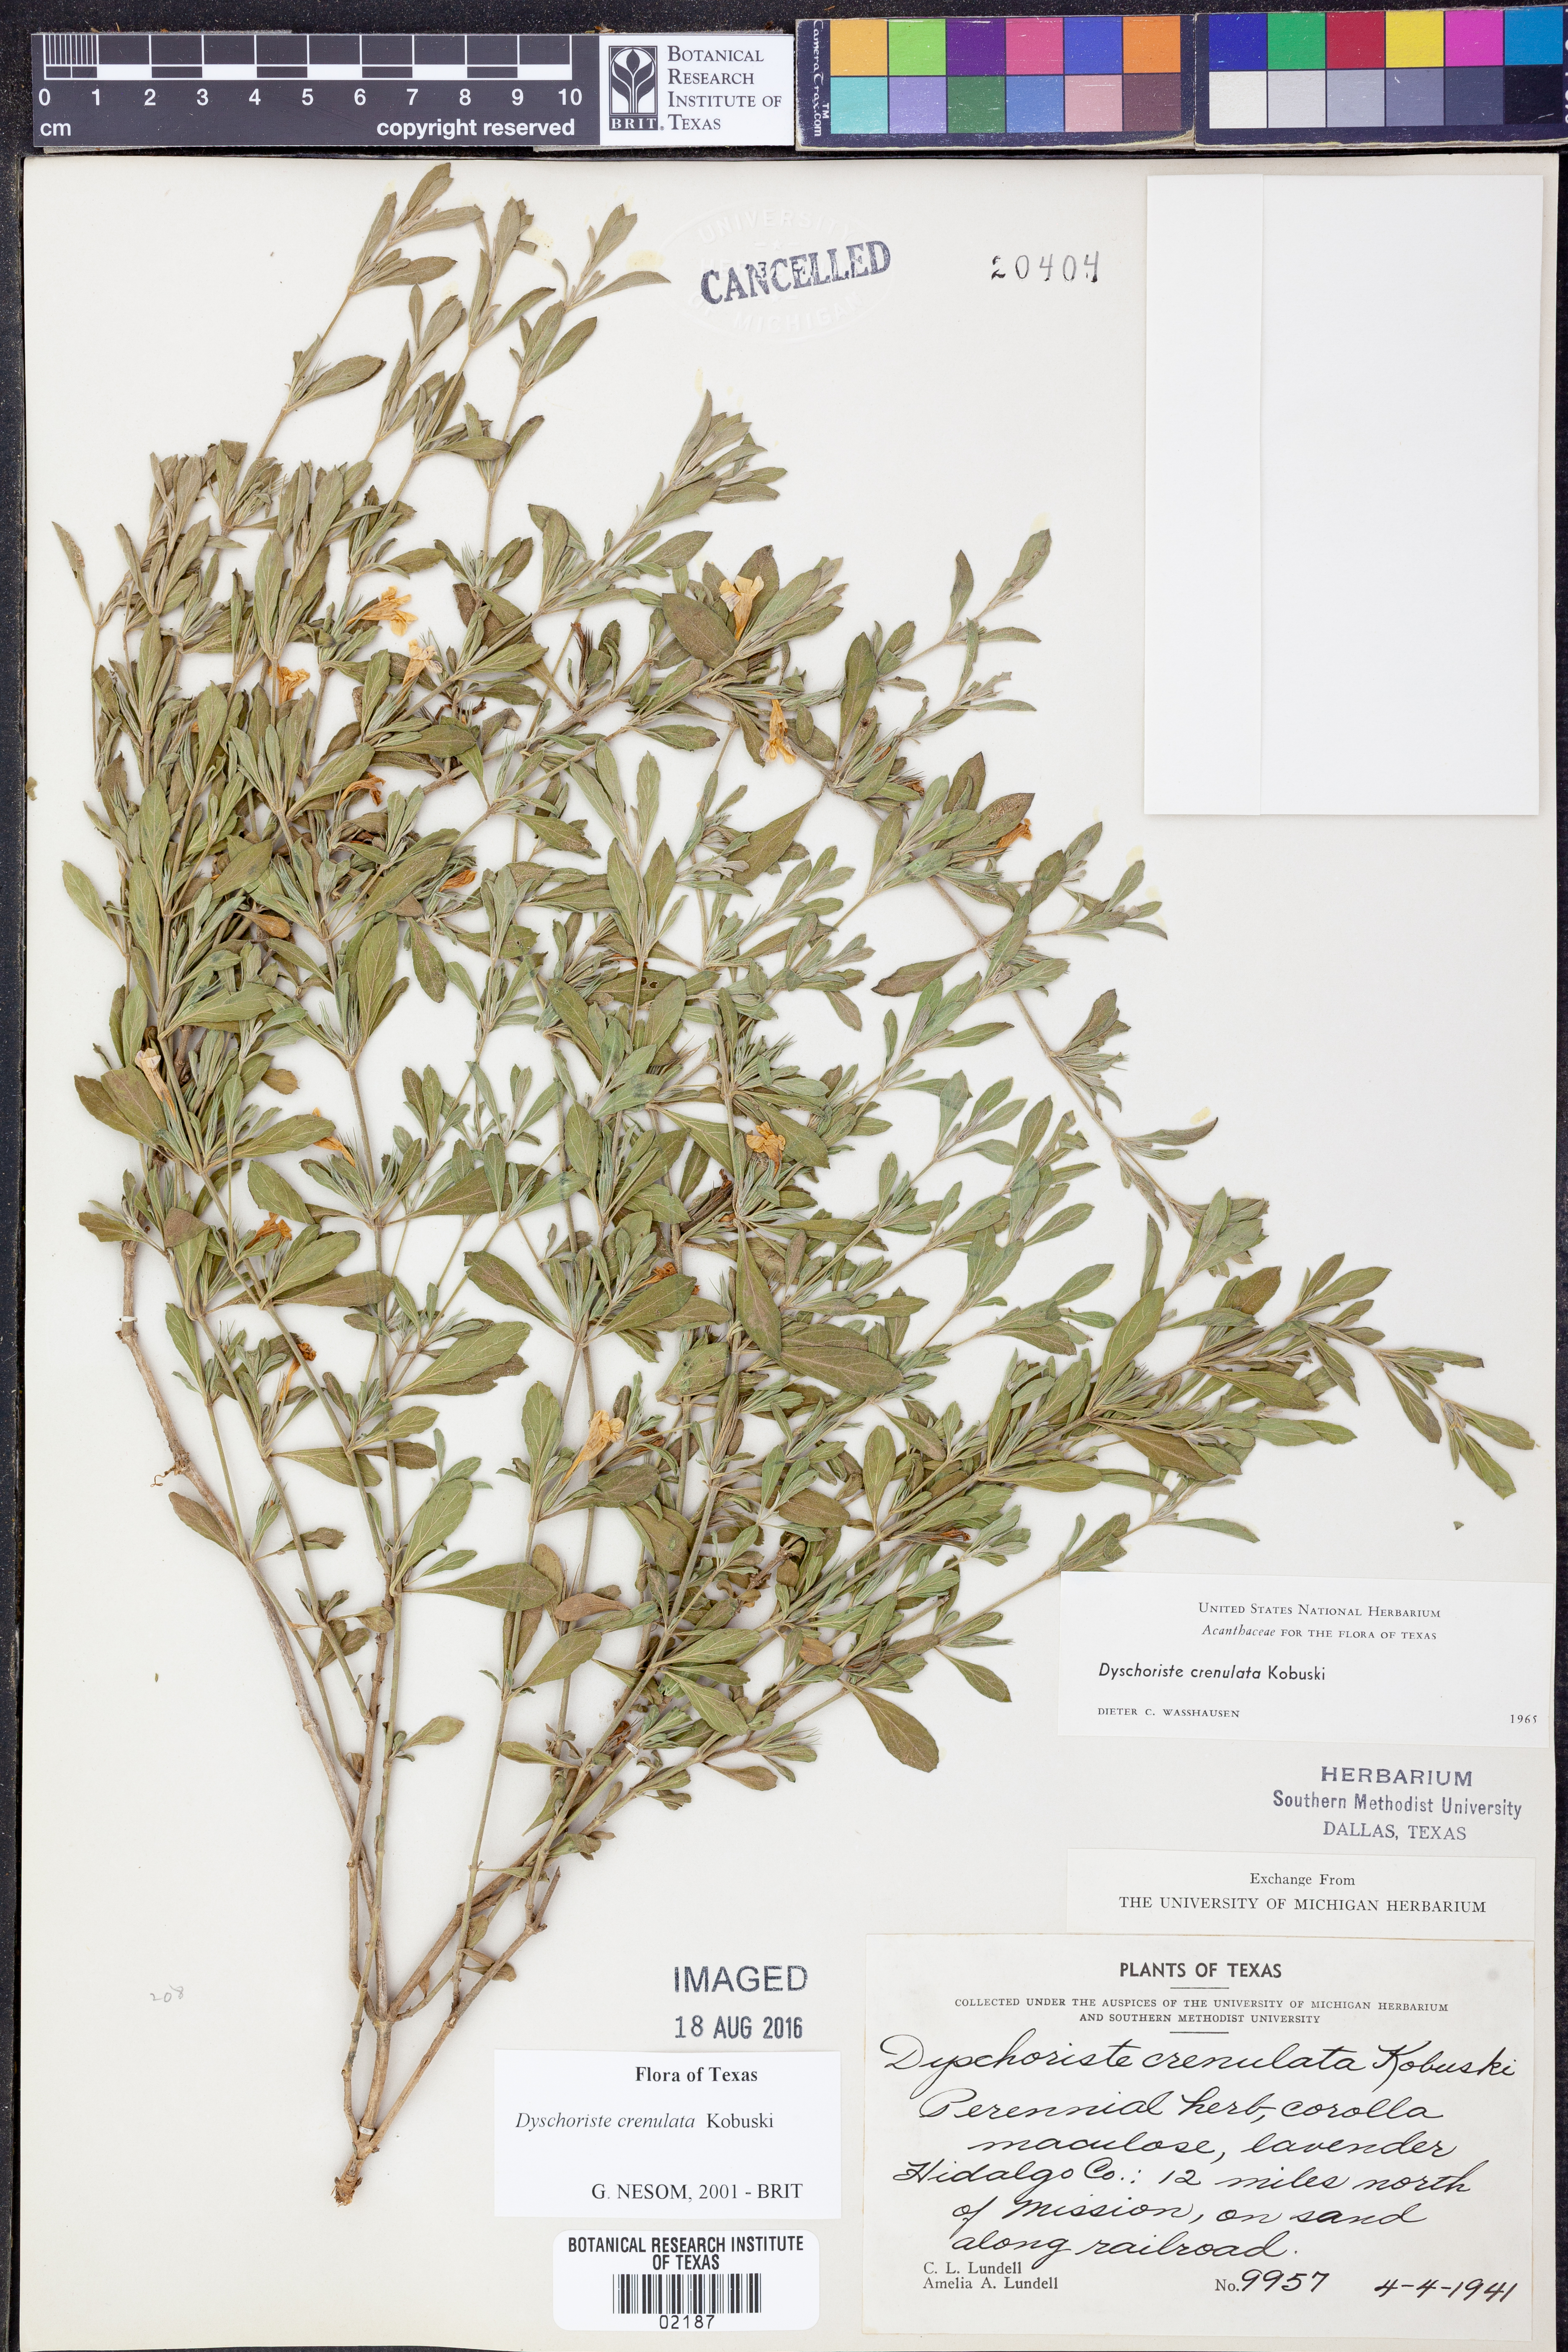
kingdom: Plantae
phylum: Tracheophyta
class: Magnoliopsida
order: Lamiales
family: Acanthaceae
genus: Dyschoriste
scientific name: Dyschoriste crenulata
